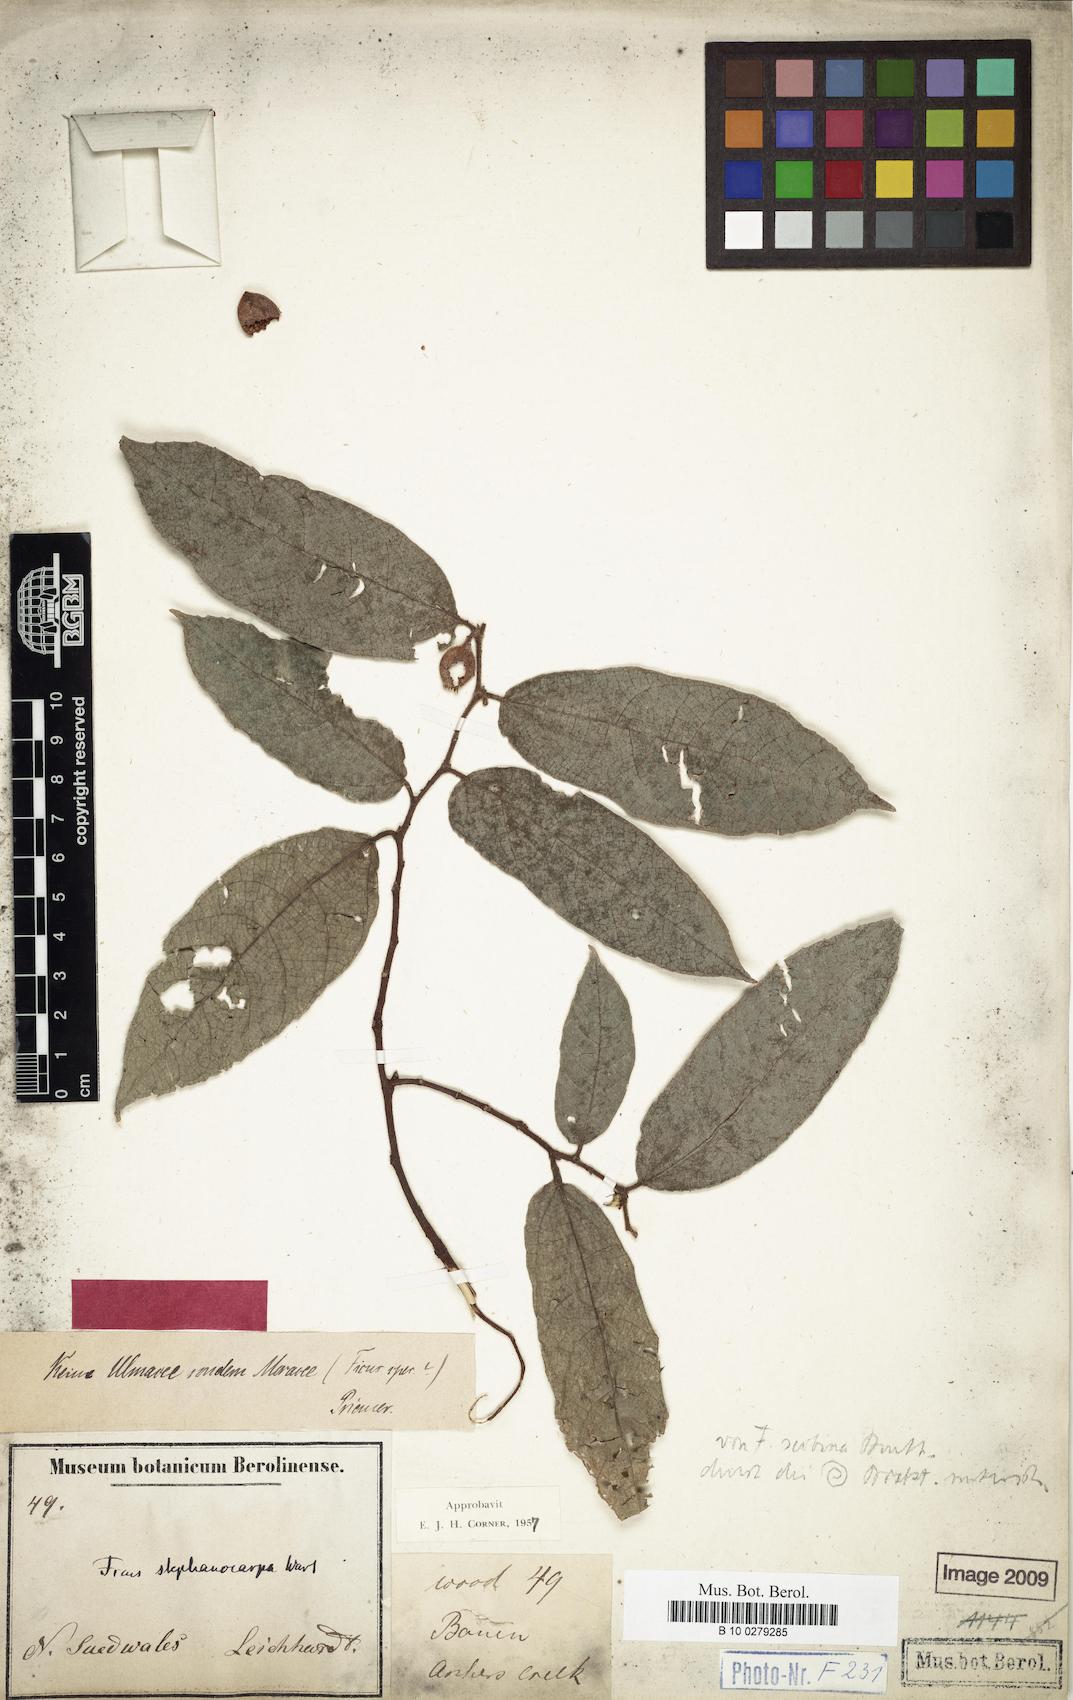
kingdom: Plantae
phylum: Tracheophyta
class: Magnoliopsida
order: Rosales
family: Moraceae
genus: Ficus
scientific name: Ficus coronata
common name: Creek sandpaper fig
